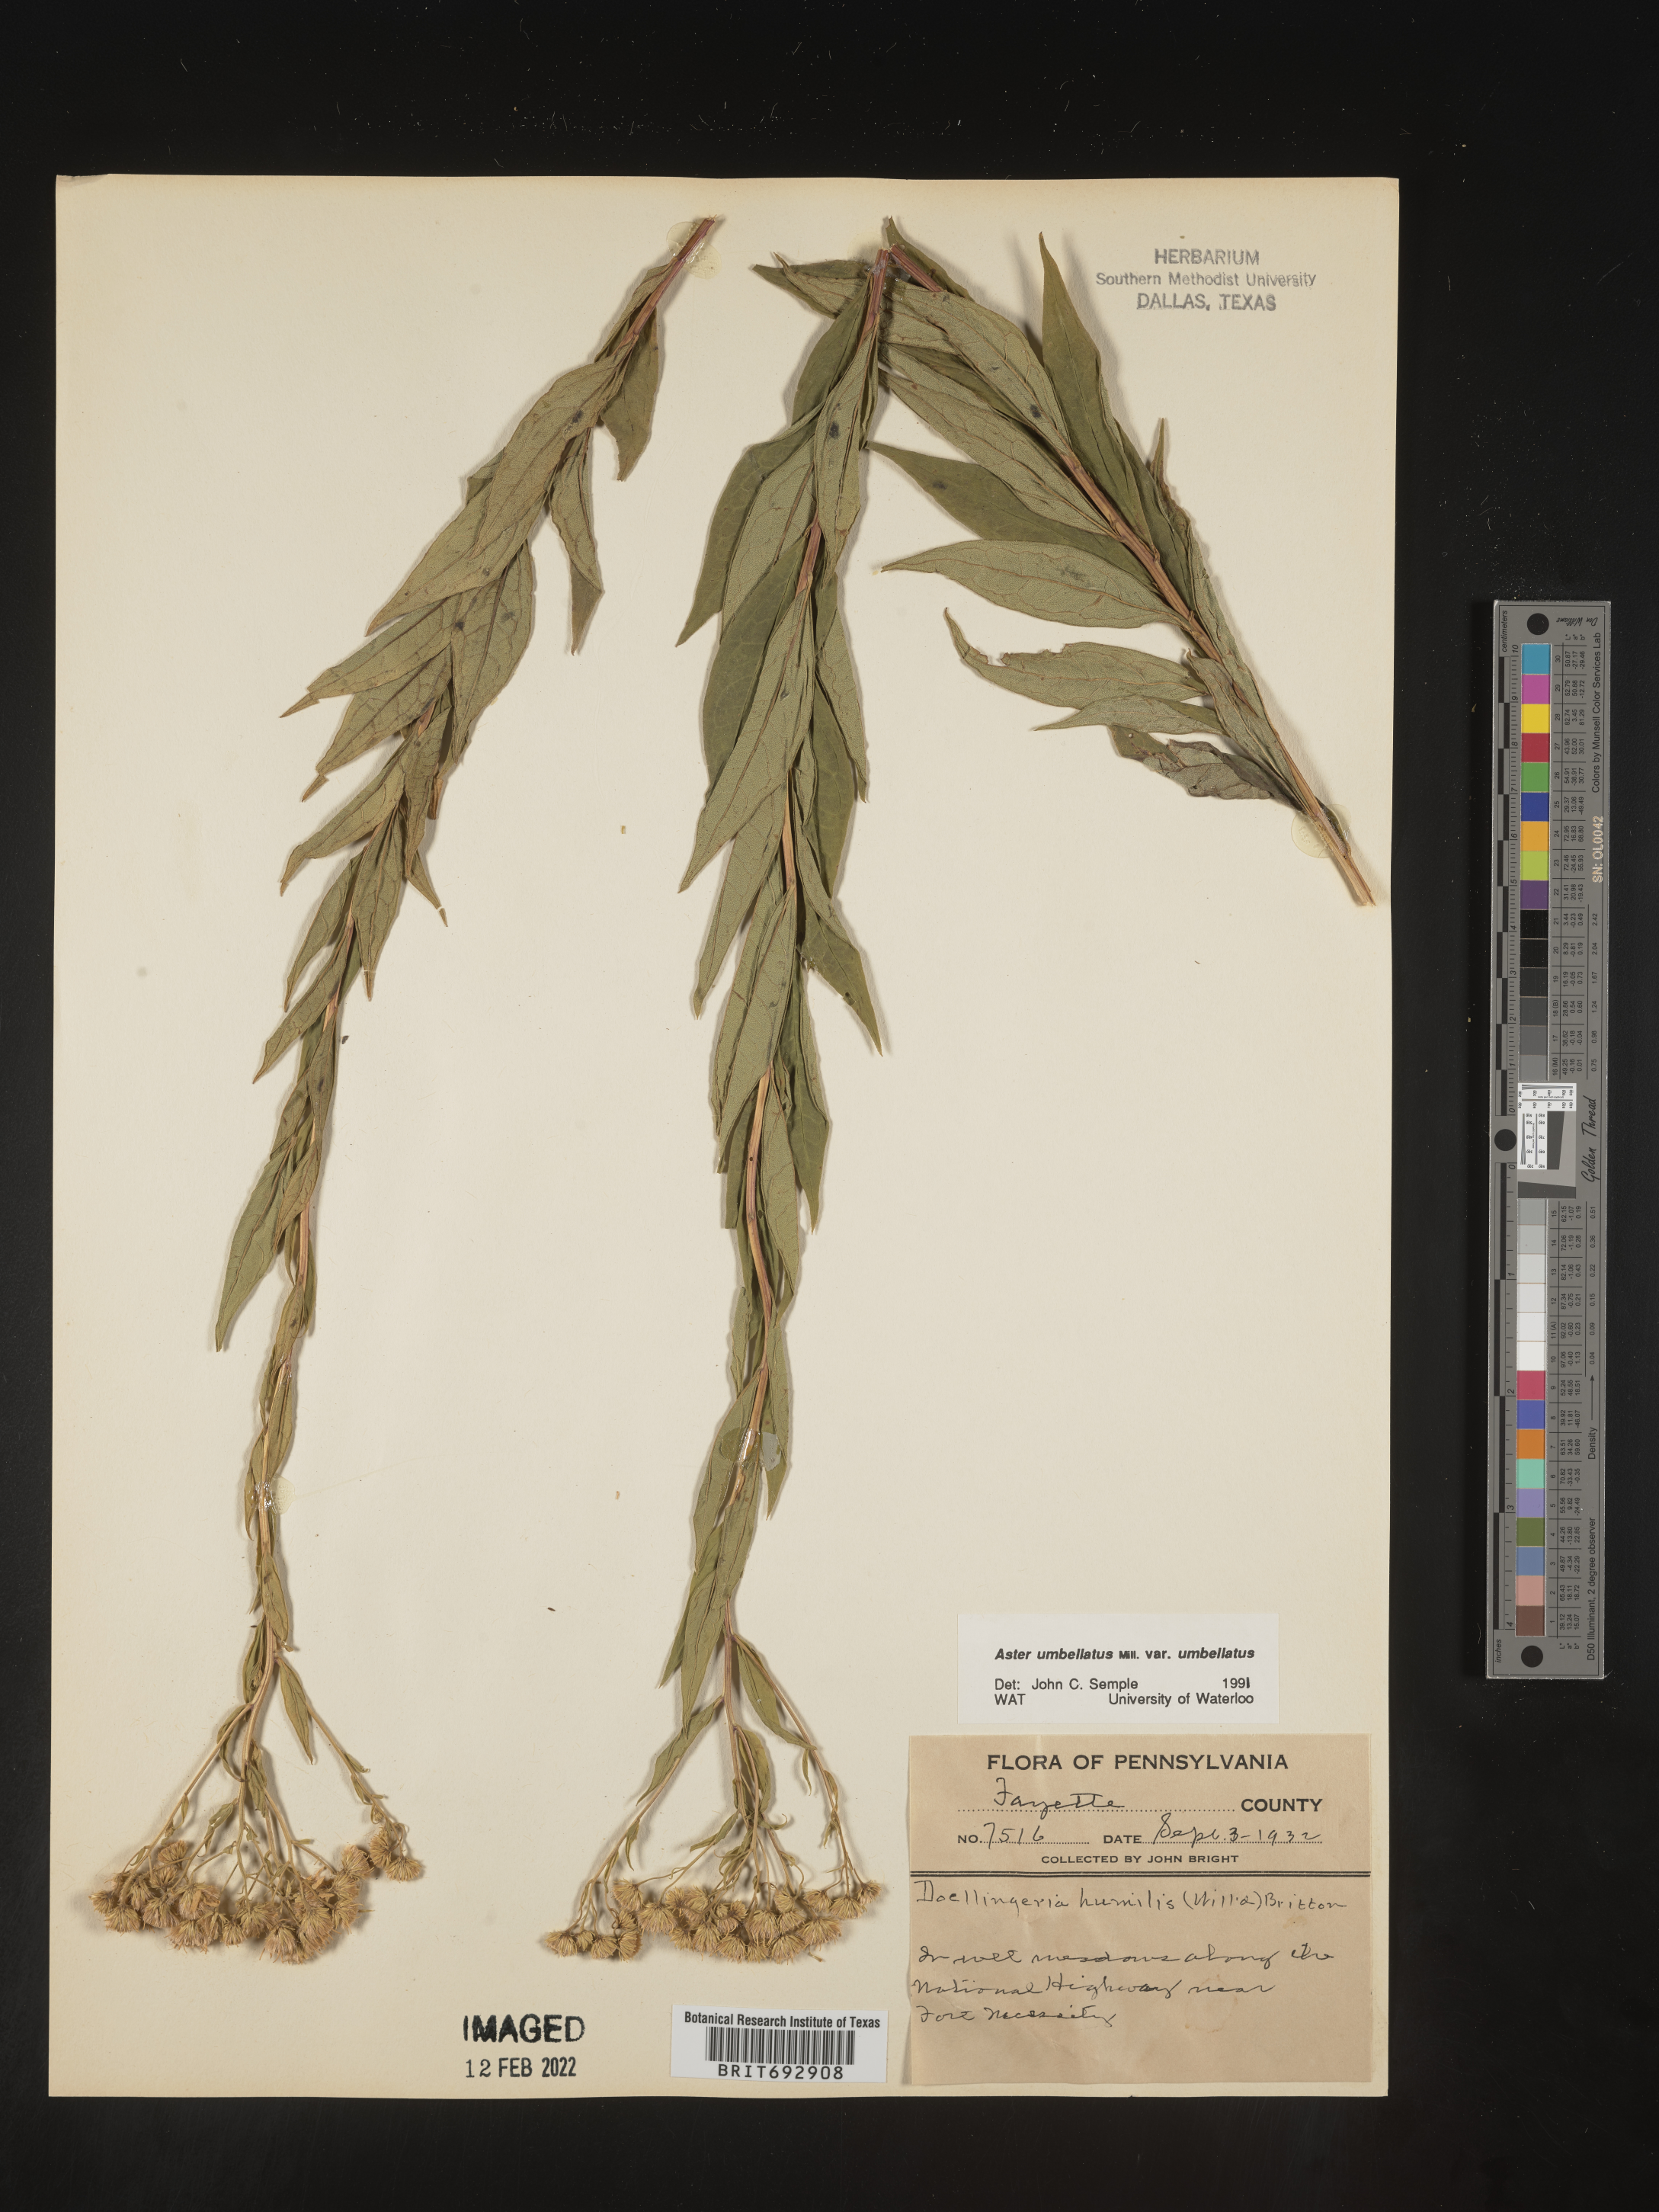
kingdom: Plantae
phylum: Tracheophyta
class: Magnoliopsida
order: Asterales
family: Asteraceae
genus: Doellingeria
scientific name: Doellingeria umbellata
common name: Flat-top white aster
